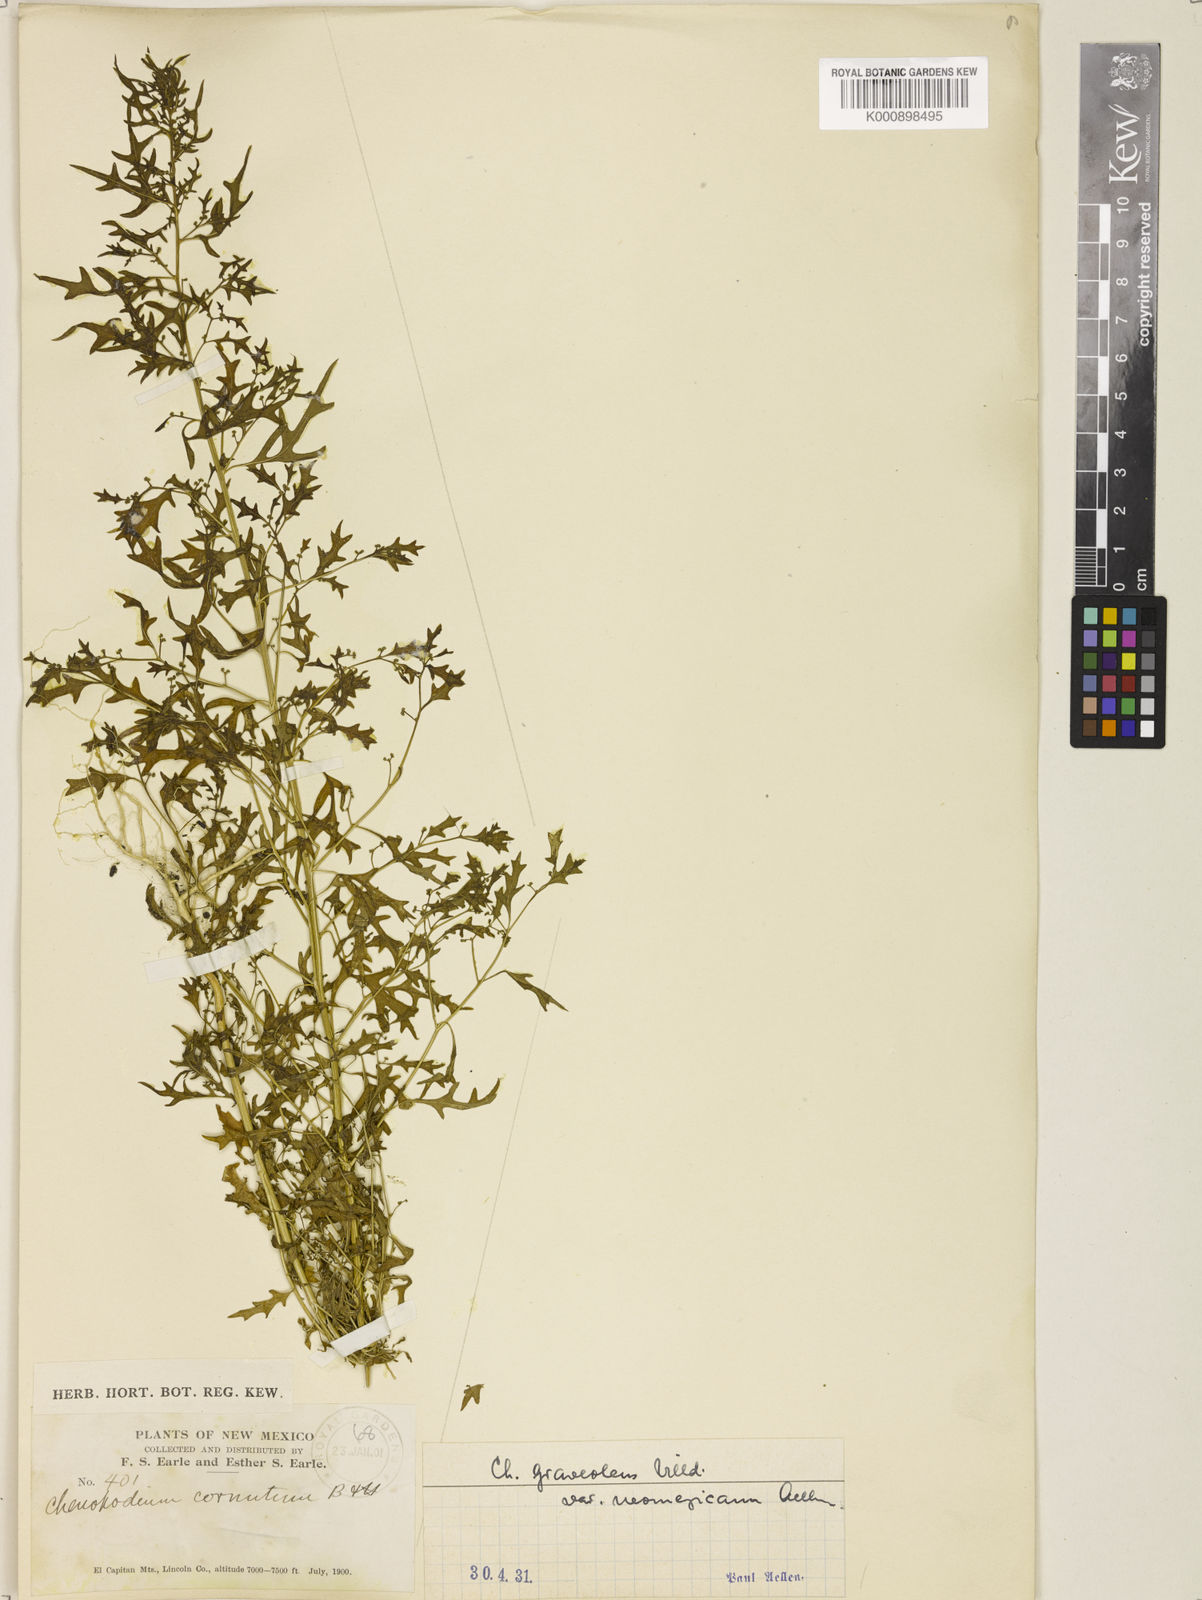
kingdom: Plantae
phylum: Tracheophyta
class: Magnoliopsida
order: Caryophyllales
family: Amaranthaceae
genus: Dysphania
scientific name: Dysphania graveolens
